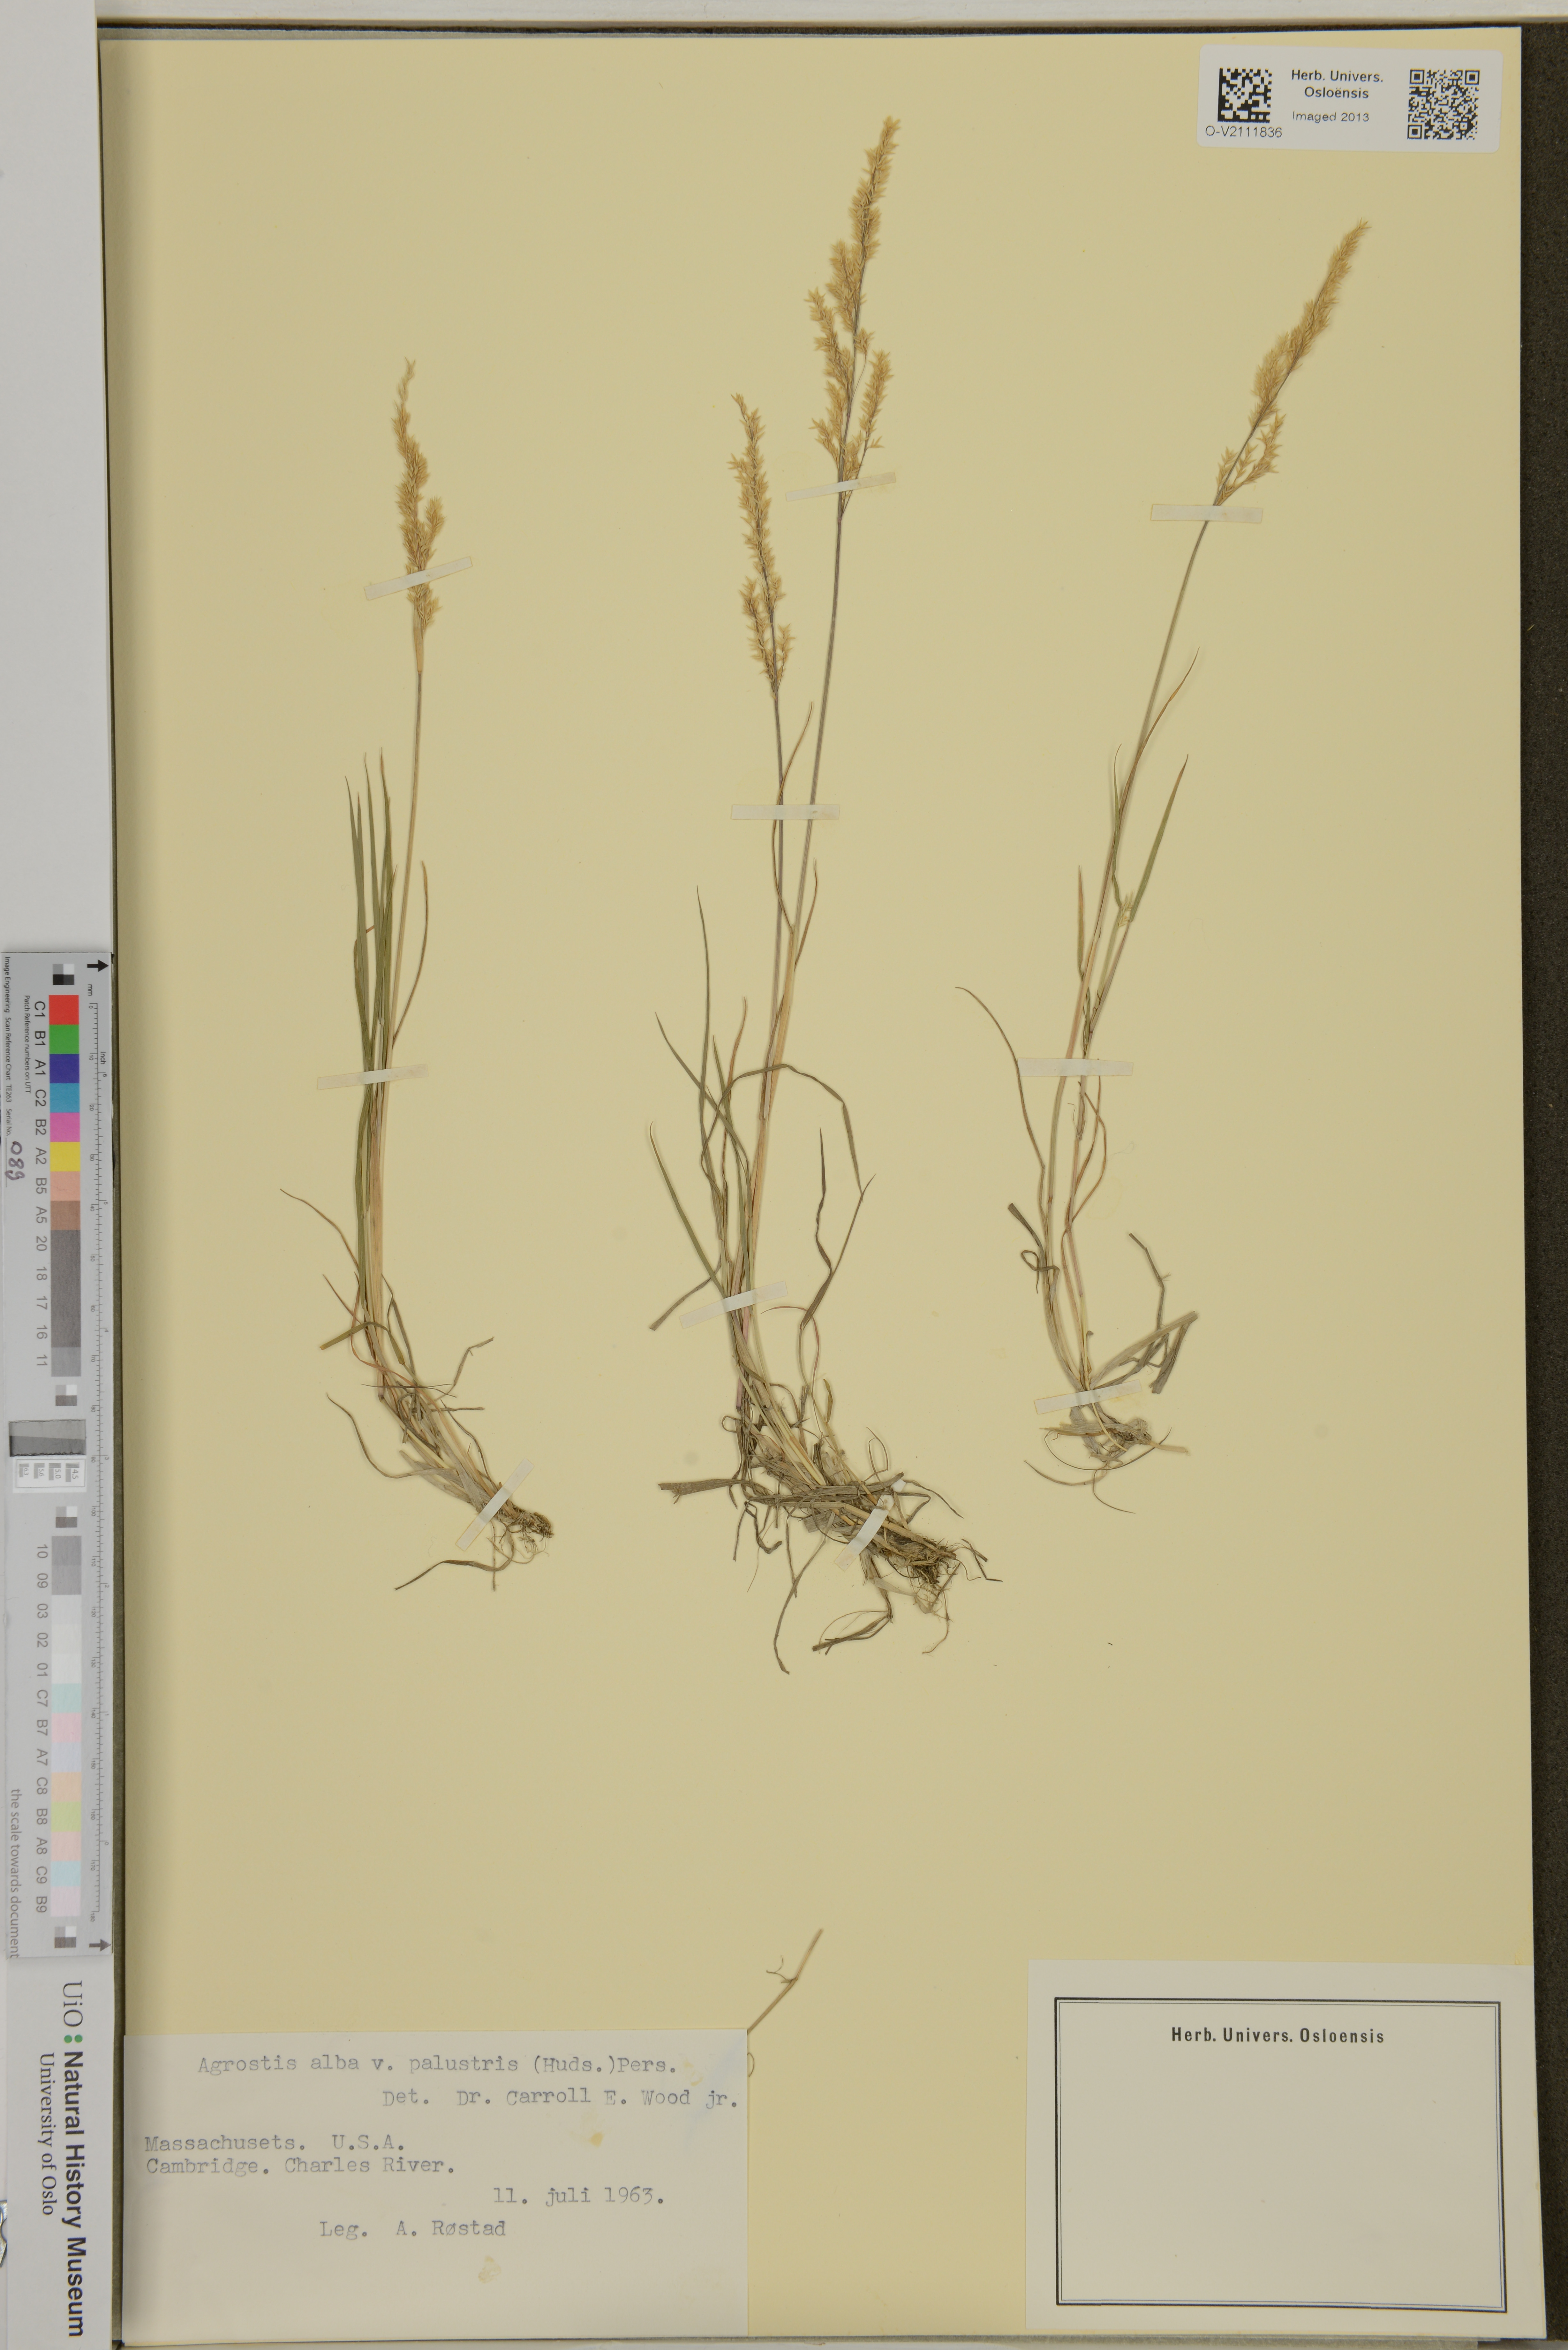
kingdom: Plantae
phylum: Tracheophyta
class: Liliopsida
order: Poales
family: Poaceae
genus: Agrostis
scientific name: Agrostis stolonifera
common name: Creeping bentgrass
